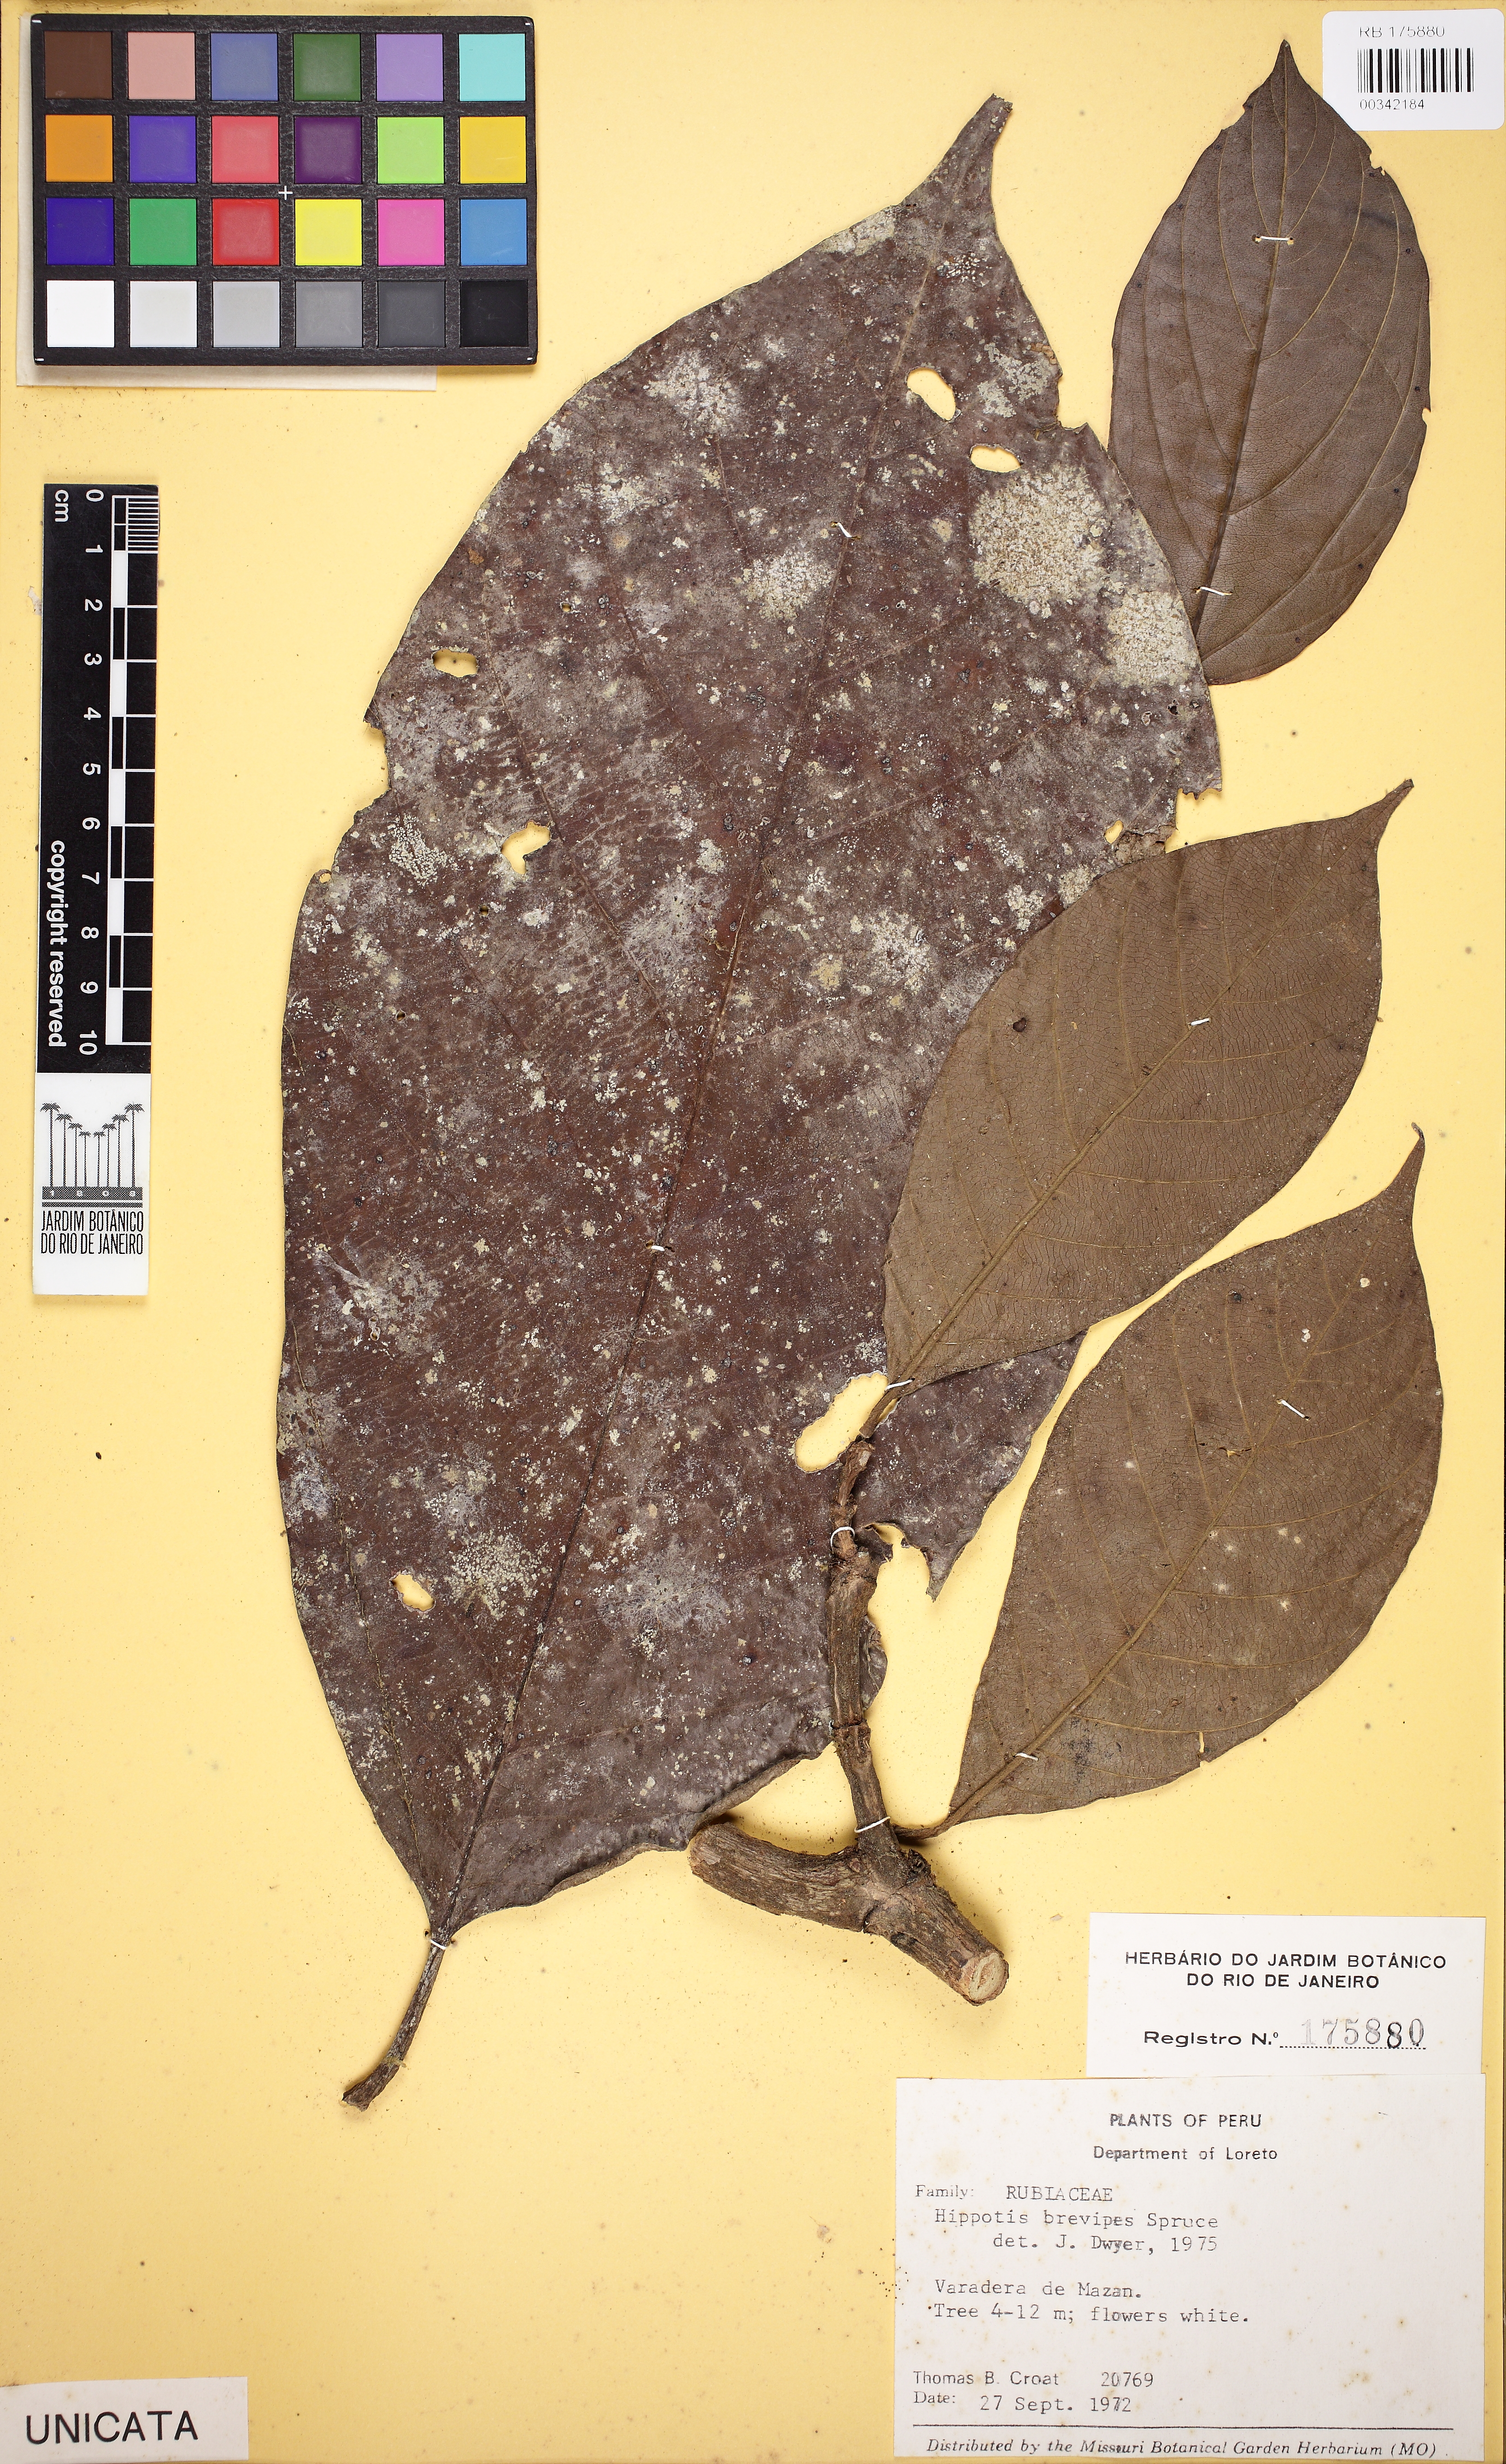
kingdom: Plantae
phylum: Tracheophyta
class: Magnoliopsida
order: Gentianales
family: Rubiaceae
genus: Hippotis
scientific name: Hippotis brevipes
